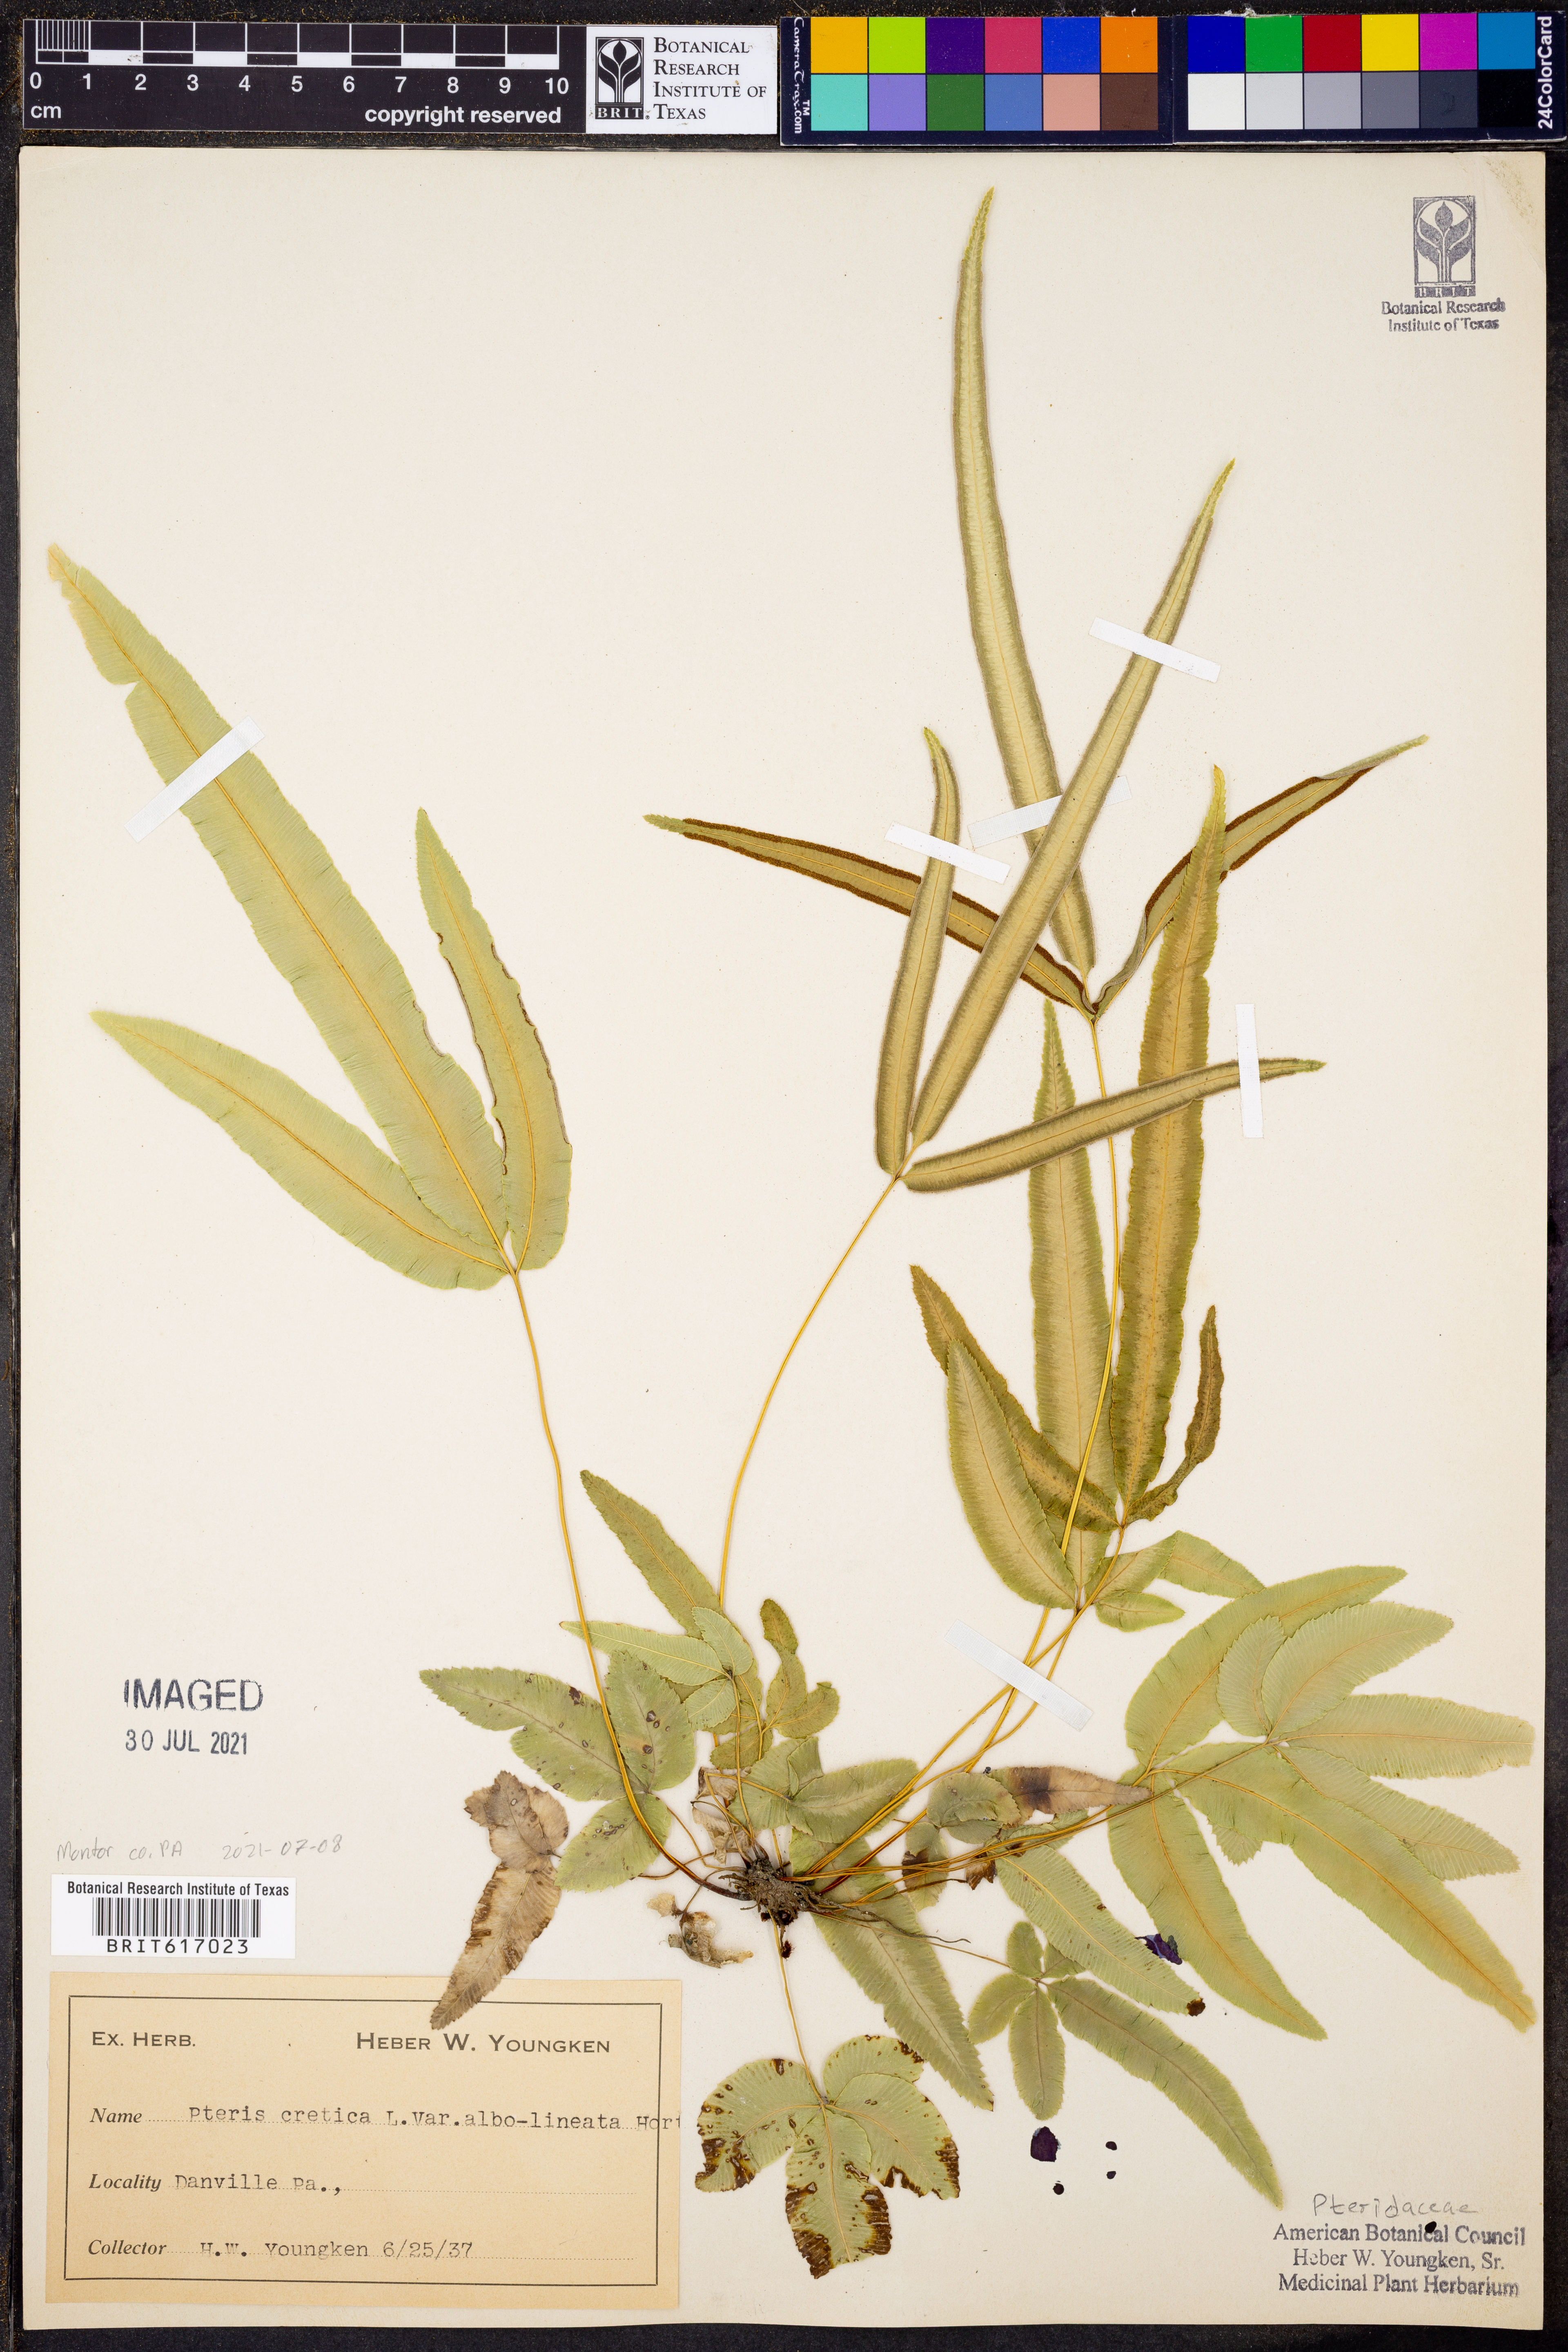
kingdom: Plantae
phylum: Tracheophyta
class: Polypodiopsida
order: Polypodiales
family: Pteridaceae
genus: Pteris
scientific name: Pteris cretica
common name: Ribbon fern
